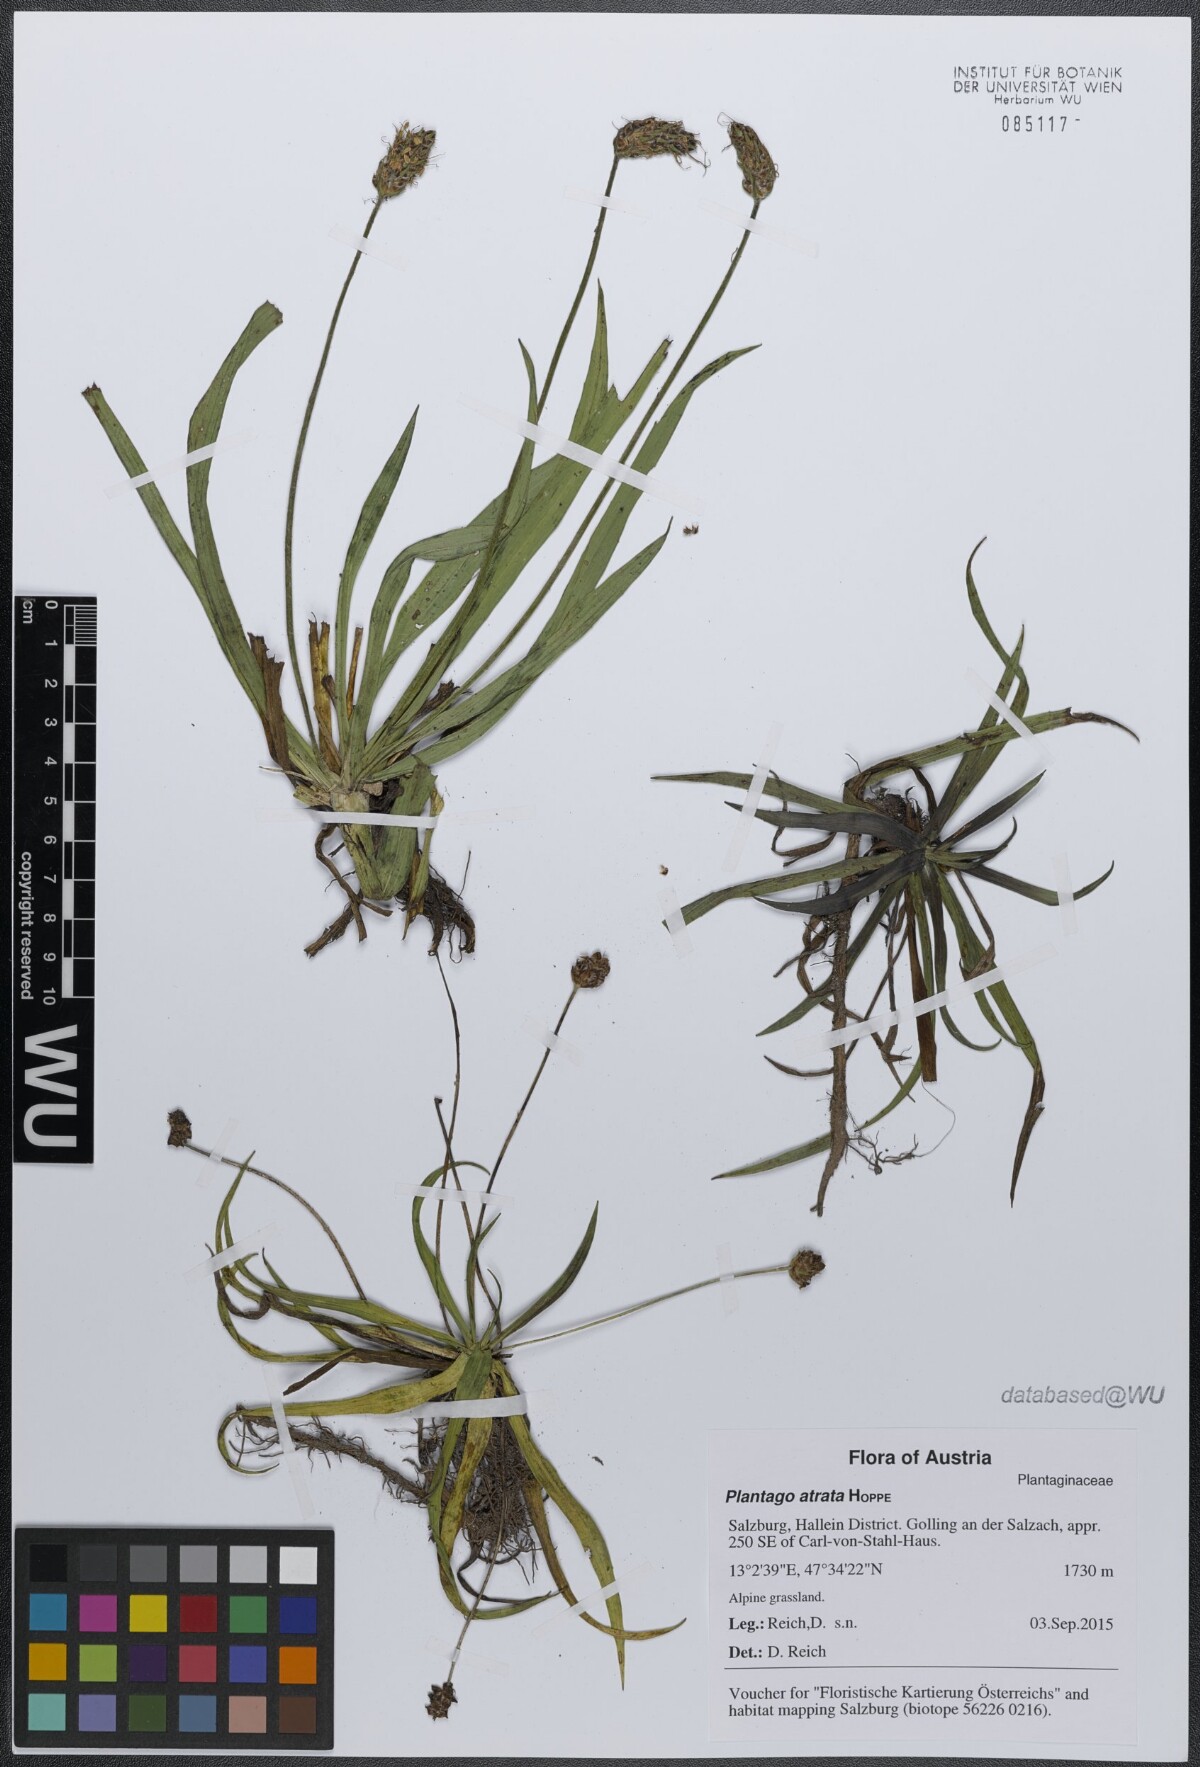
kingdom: Plantae
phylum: Tracheophyta
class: Magnoliopsida
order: Lamiales
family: Plantaginaceae
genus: Plantago
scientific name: Plantago atrata
